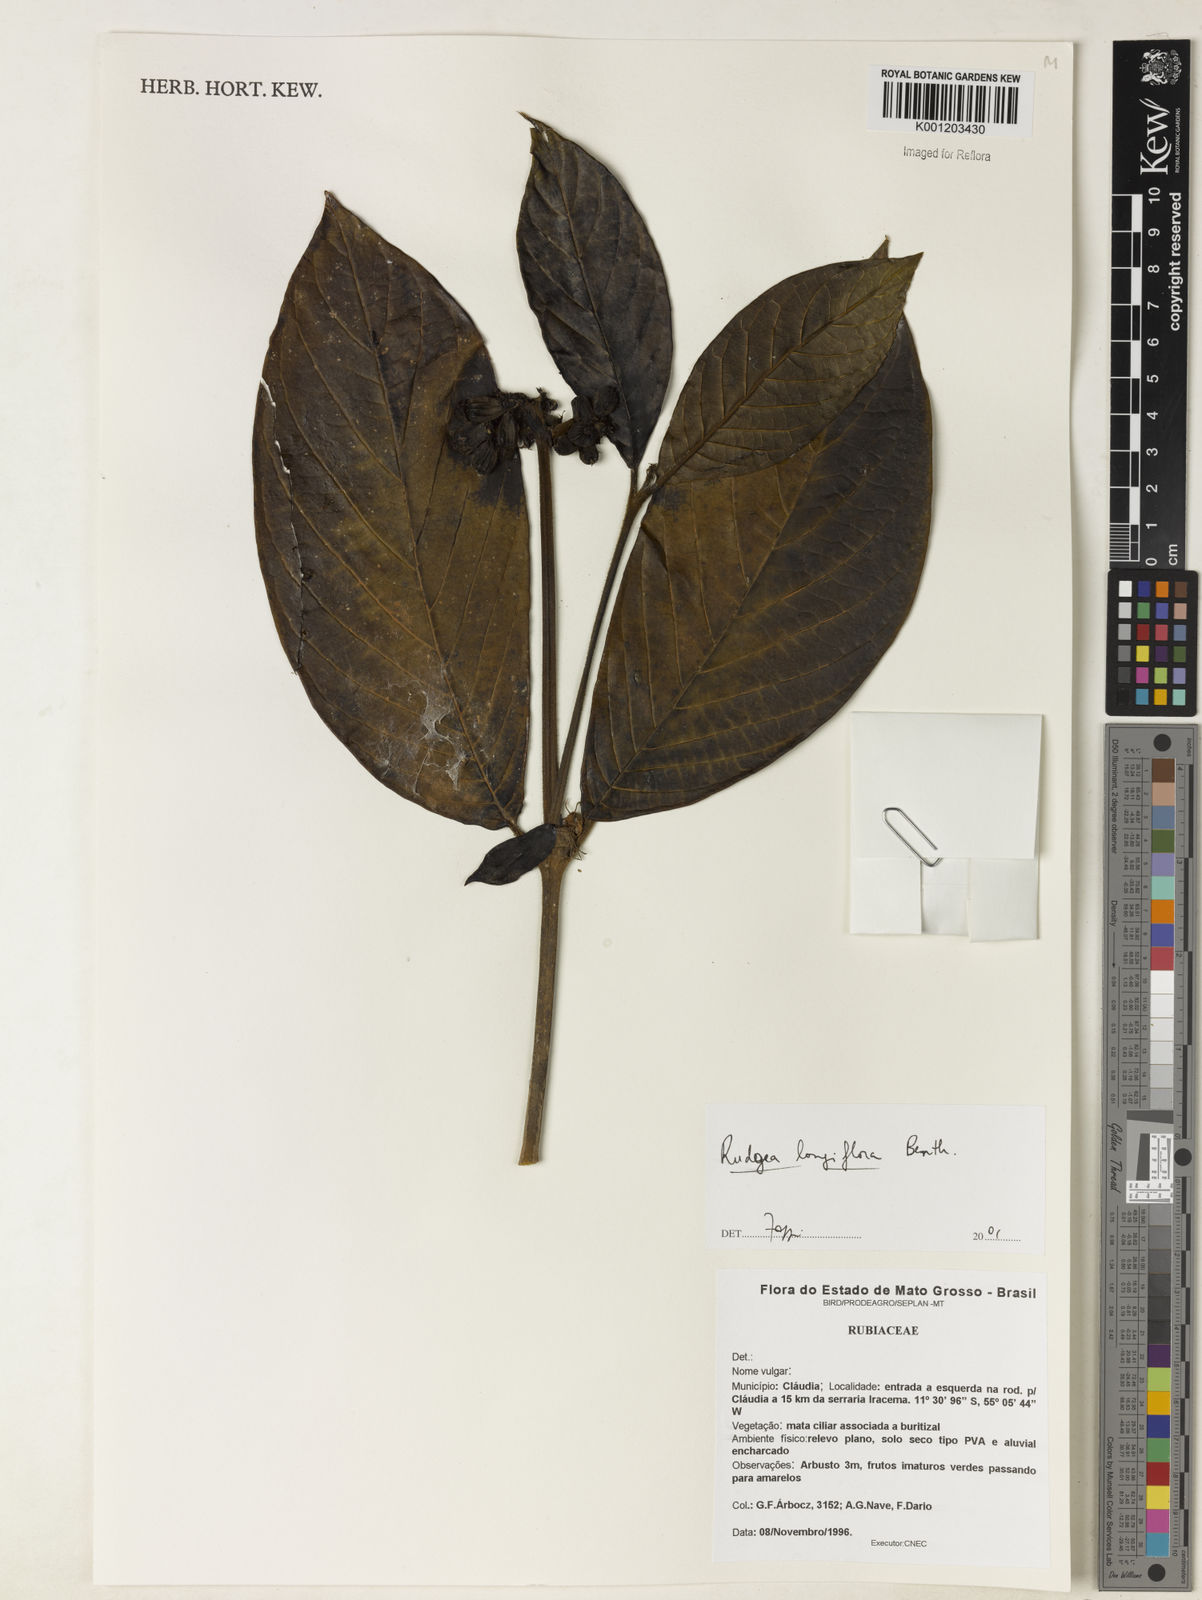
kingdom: Plantae
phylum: Tracheophyta
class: Magnoliopsida
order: Gentianales
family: Rubiaceae
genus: Rudgea
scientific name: Rudgea longiflora
